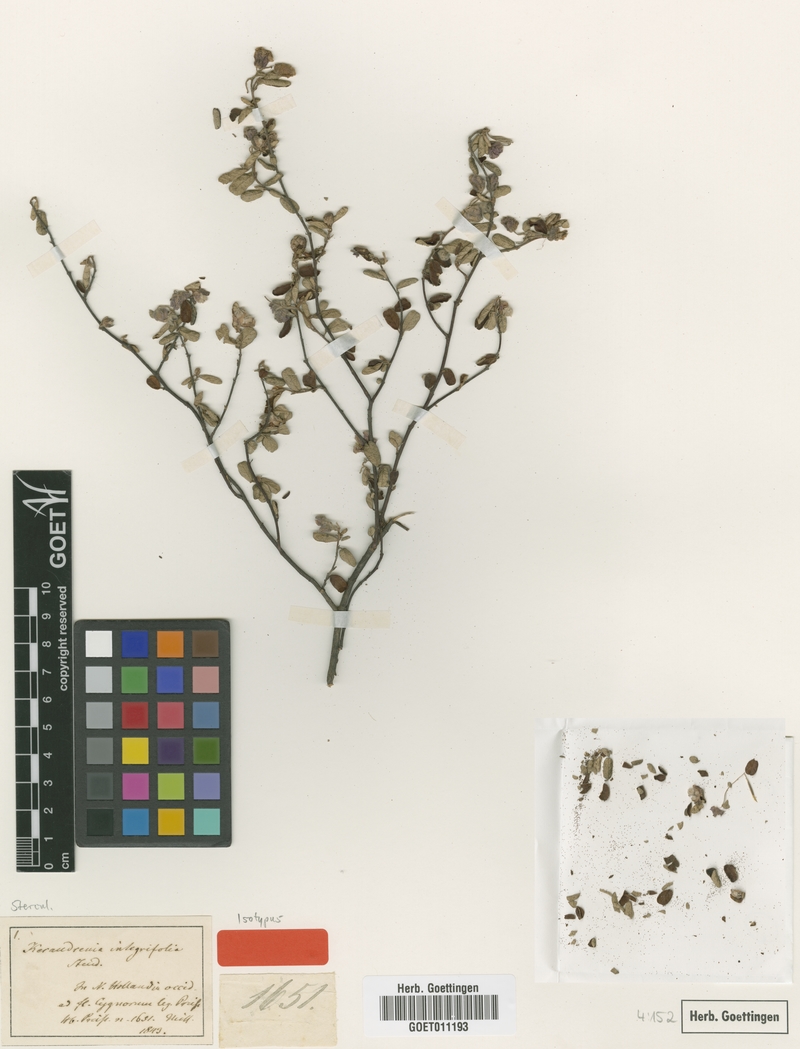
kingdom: Plantae
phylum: Tracheophyta
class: Magnoliopsida
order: Malvales
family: Malvaceae
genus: Seringia
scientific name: Seringia integrifolia
